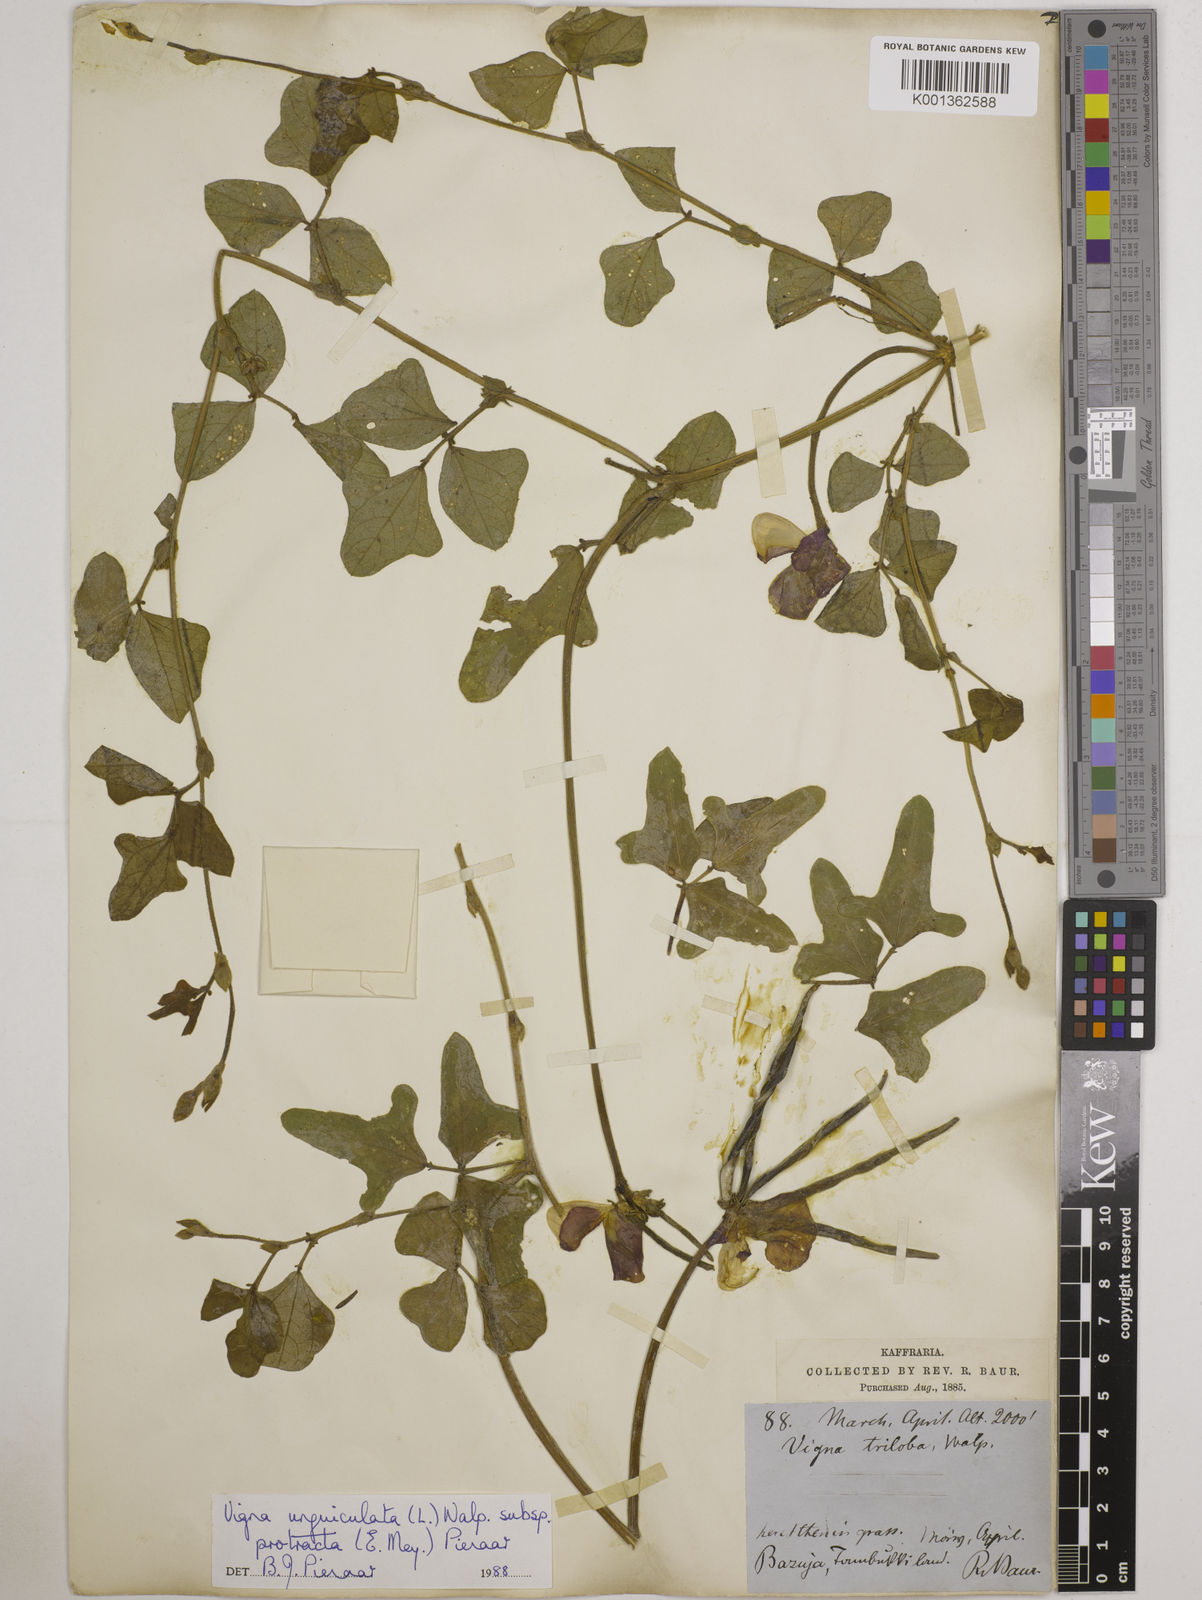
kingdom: Plantae
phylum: Tracheophyta
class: Magnoliopsida
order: Fabales
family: Fabaceae
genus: Vigna
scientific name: Vigna unguiculata
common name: Cowpea
